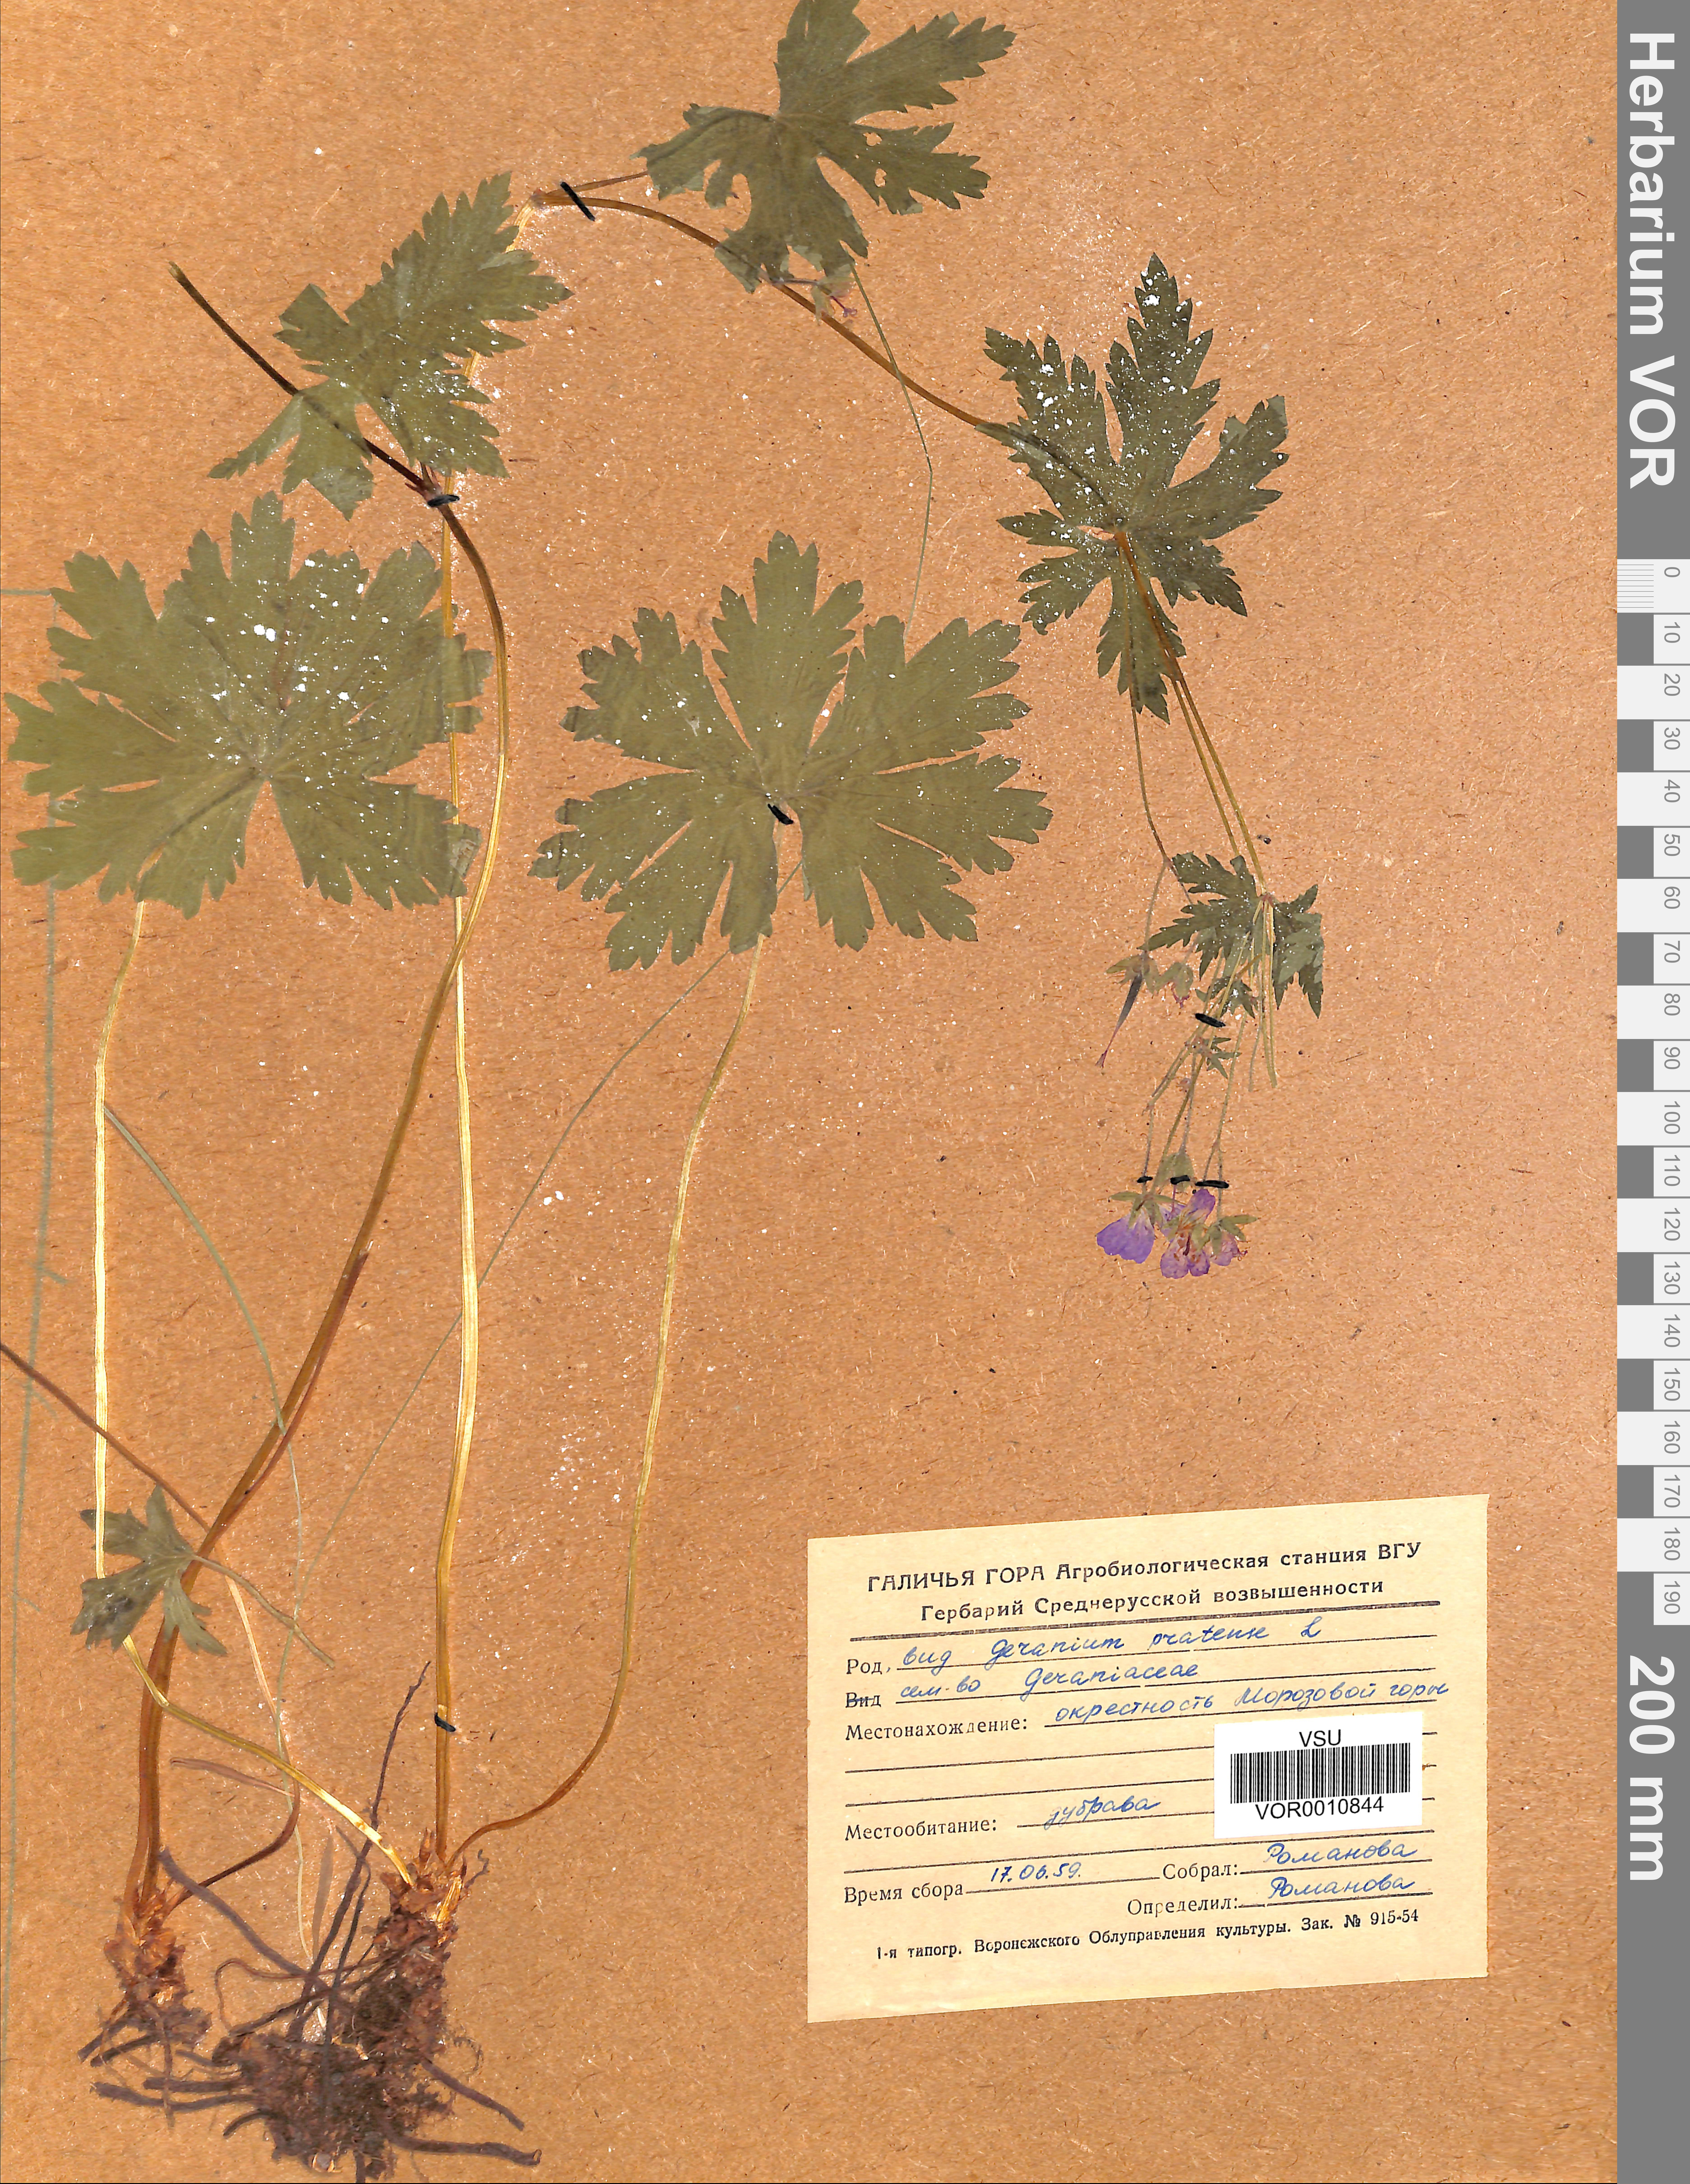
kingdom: Plantae
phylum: Tracheophyta
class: Magnoliopsida
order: Geraniales
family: Geraniaceae
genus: Geranium
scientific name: Geranium pratense
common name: Meadow crane's-bill
